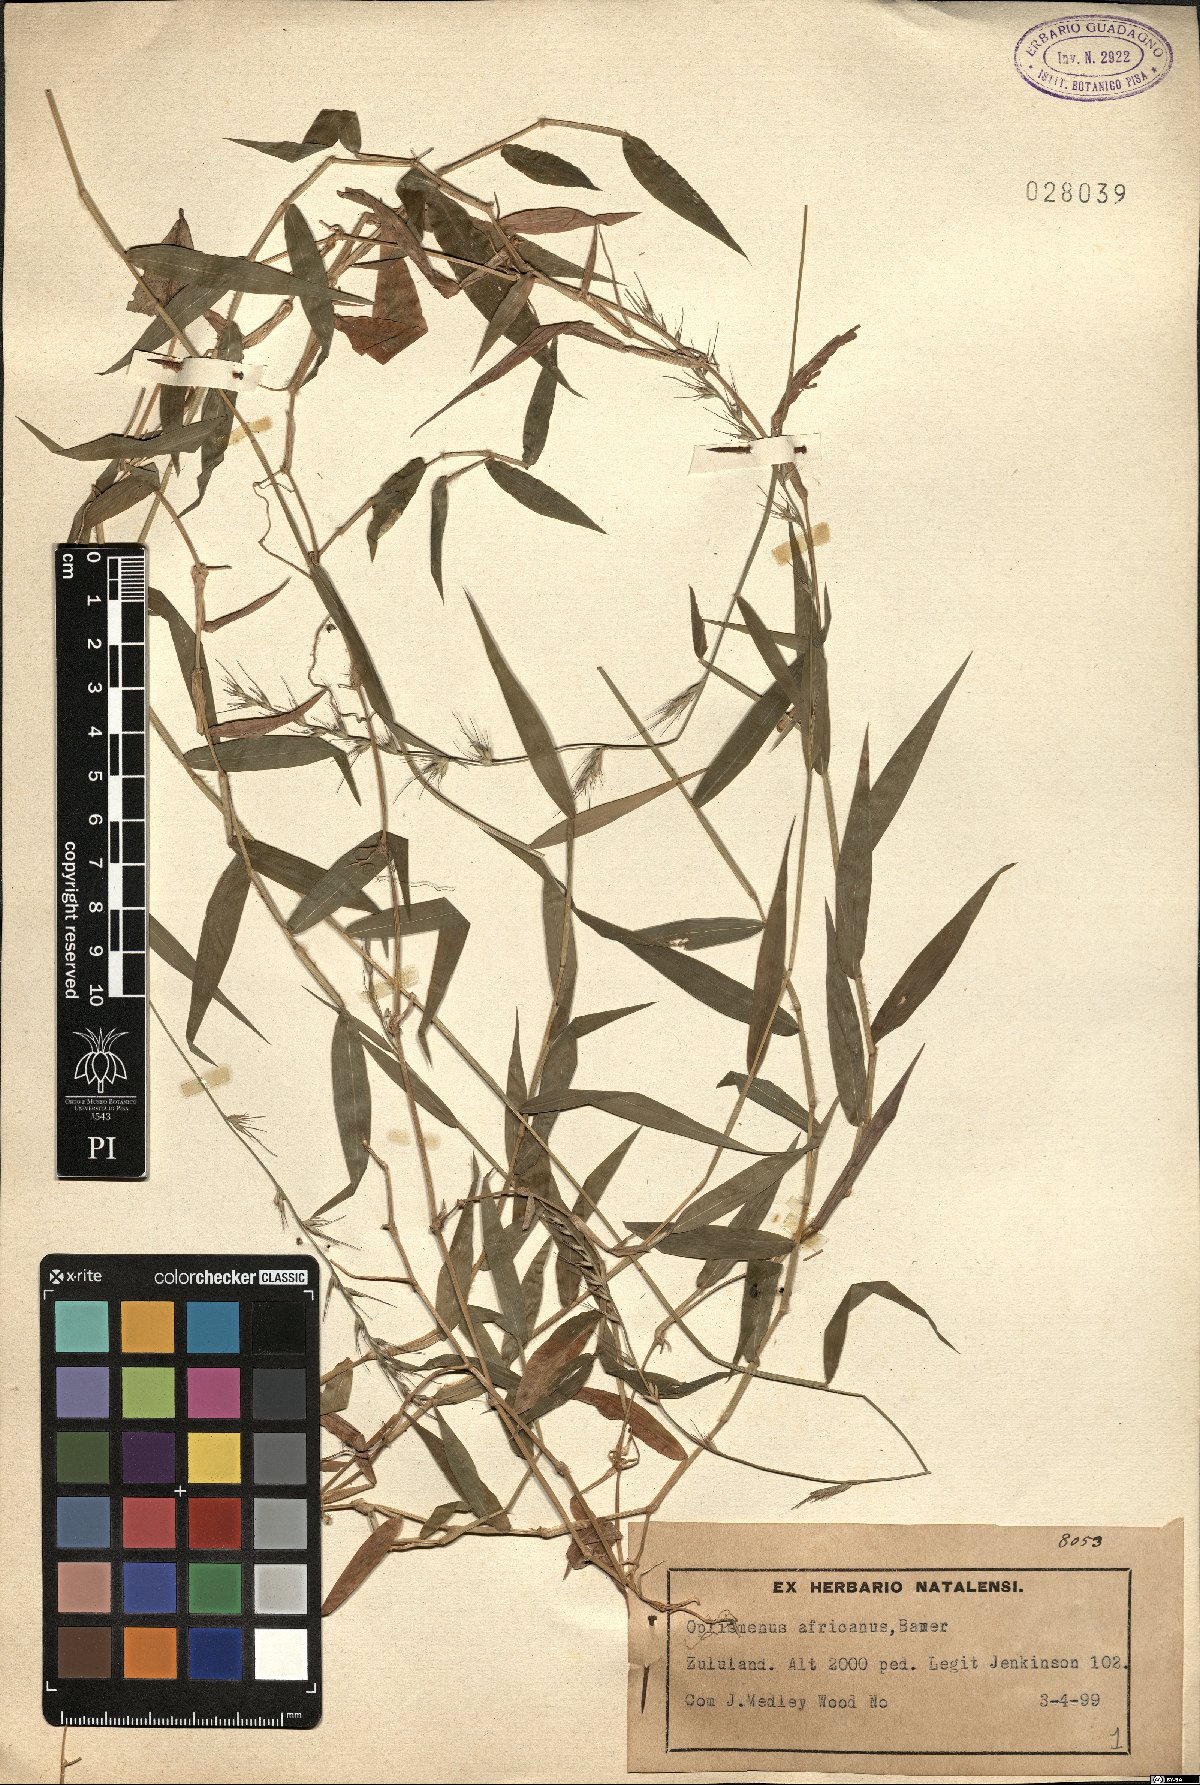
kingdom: Plantae
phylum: Tracheophyta
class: Liliopsida
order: Poales
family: Poaceae
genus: Oplismenus
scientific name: Oplismenus hirtellus
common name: Basketgrass
